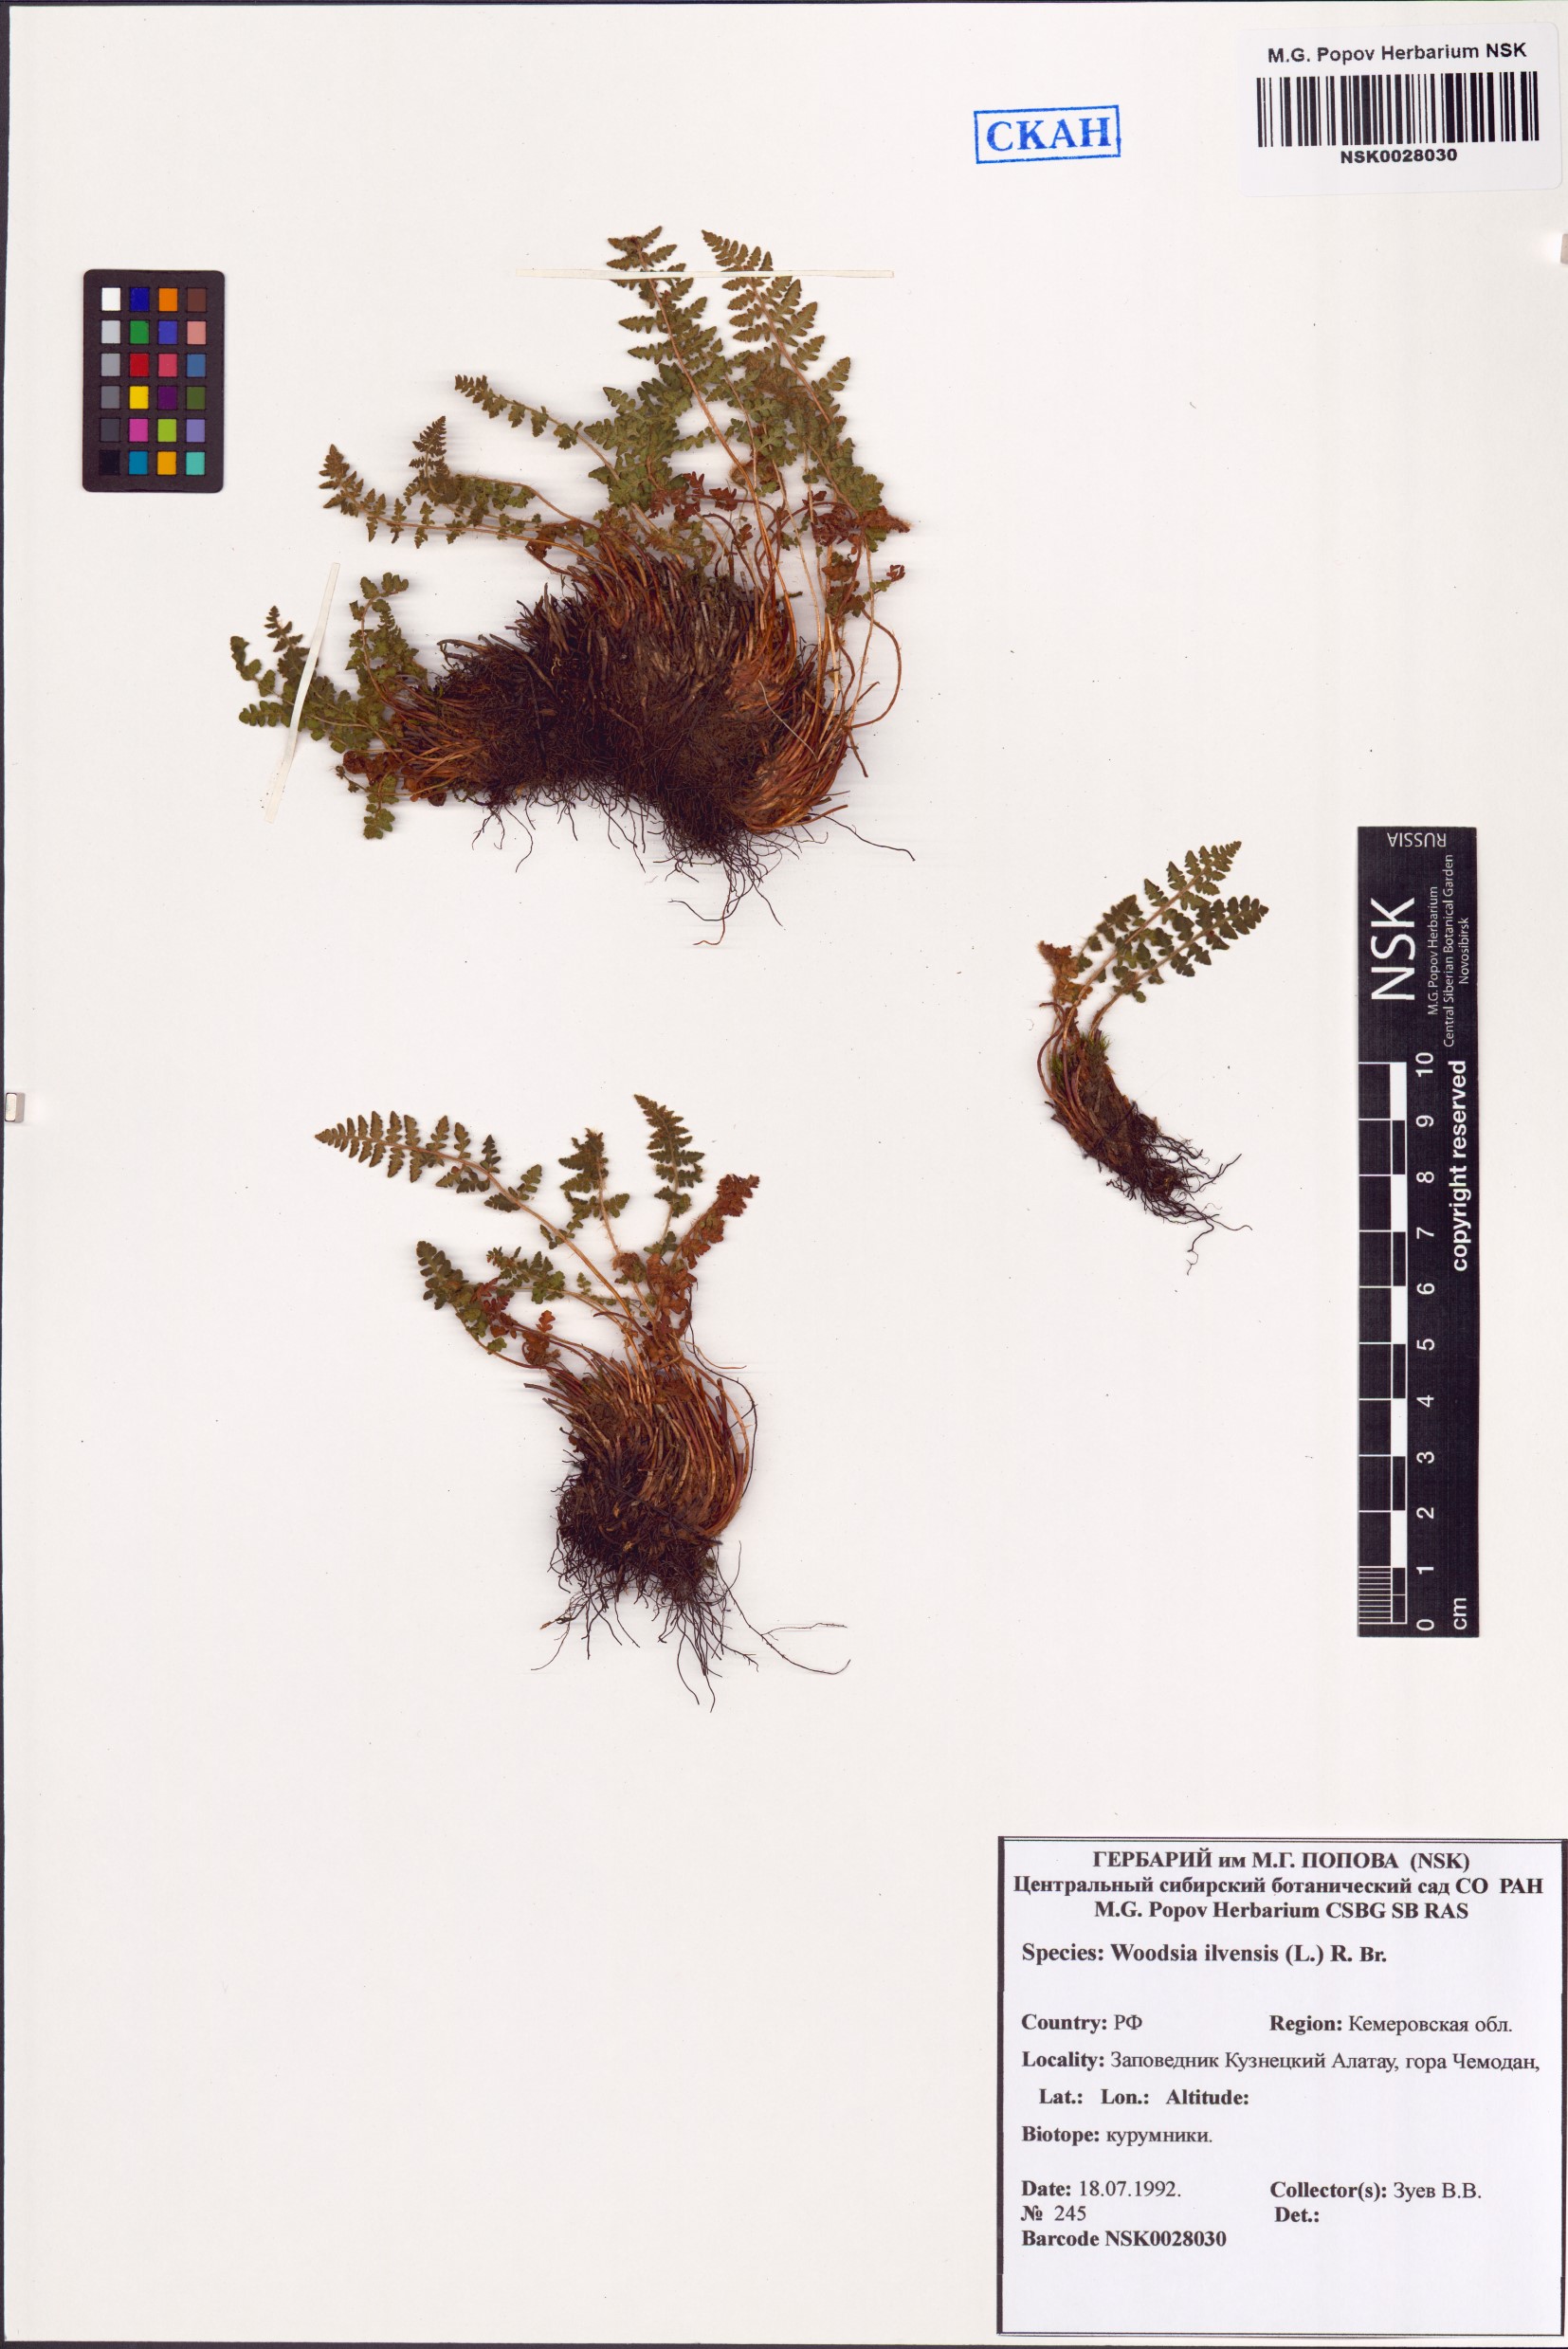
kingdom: Plantae
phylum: Tracheophyta
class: Polypodiopsida
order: Polypodiales
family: Woodsiaceae
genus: Woodsia
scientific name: Woodsia ilvensis
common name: Fragrant woodsia
